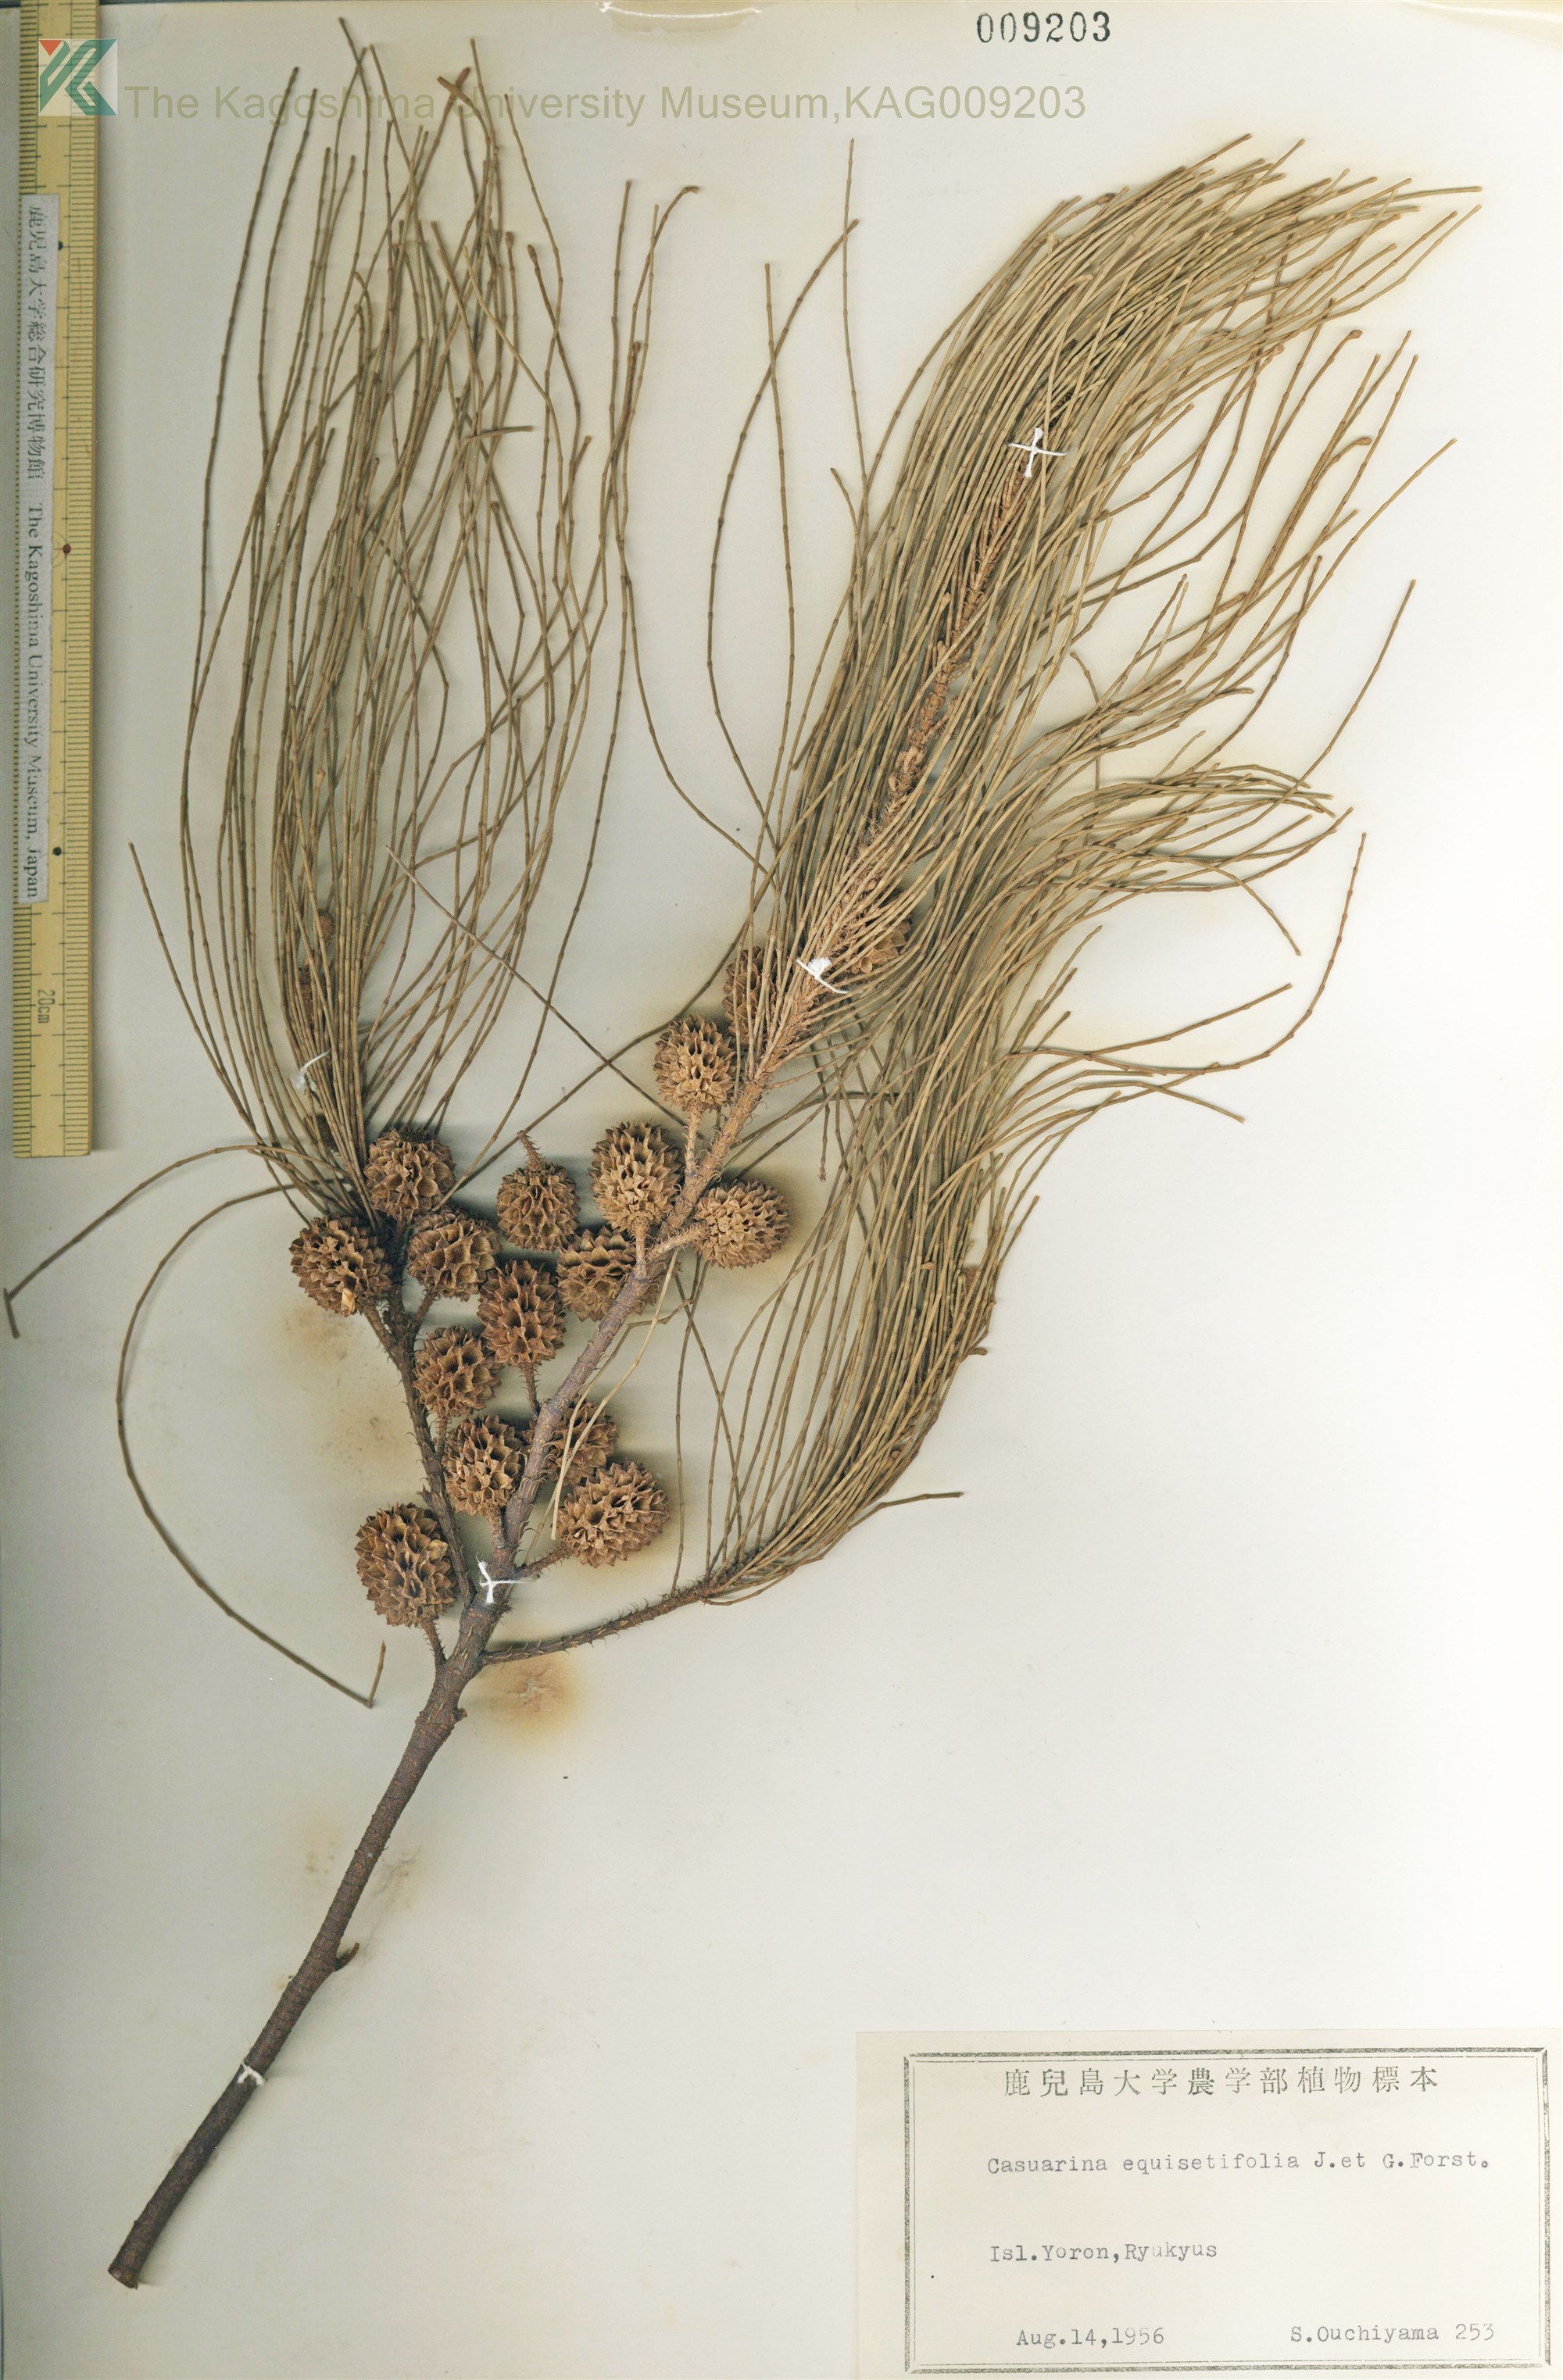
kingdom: Plantae
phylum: Tracheophyta
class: Magnoliopsida
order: Fagales
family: Casuarinaceae
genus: Casuarina
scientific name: Casuarina equisetifolia
